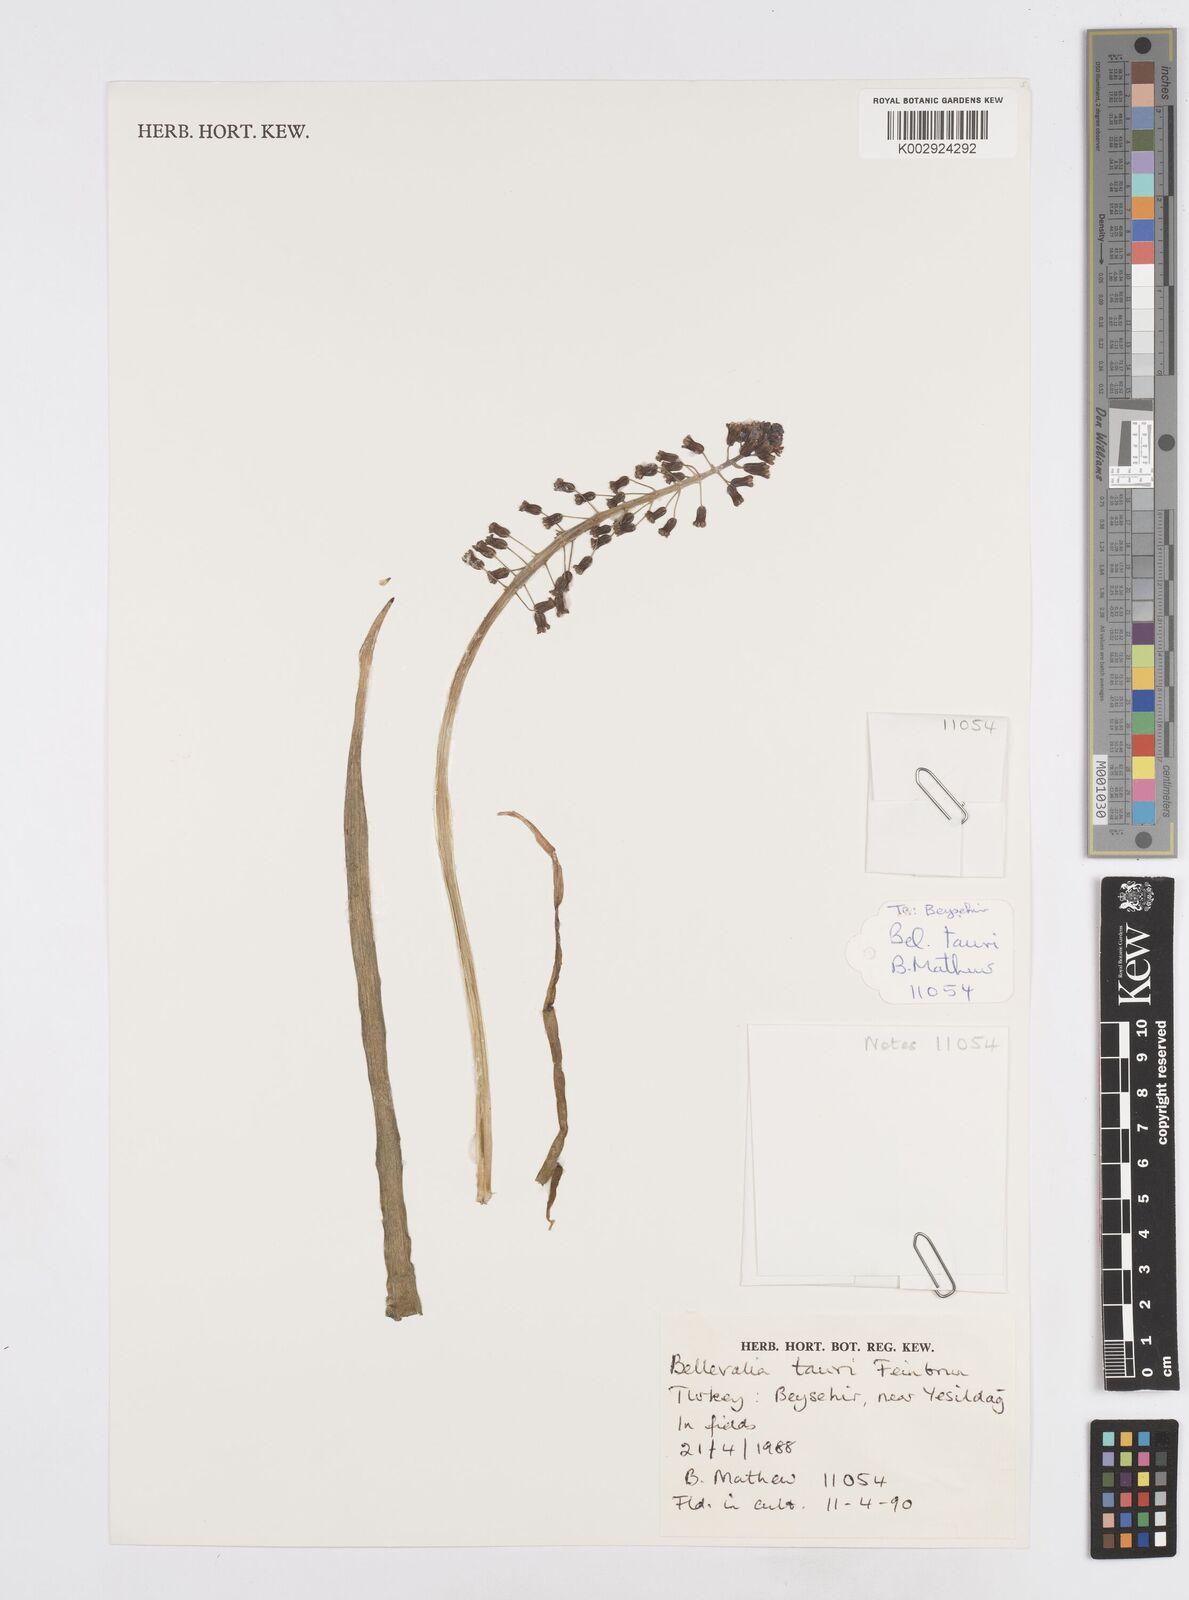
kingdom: Plantae
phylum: Tracheophyta
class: Liliopsida
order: Asparagales
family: Asparagaceae
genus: Bellevalia
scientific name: Bellevalia tauri
